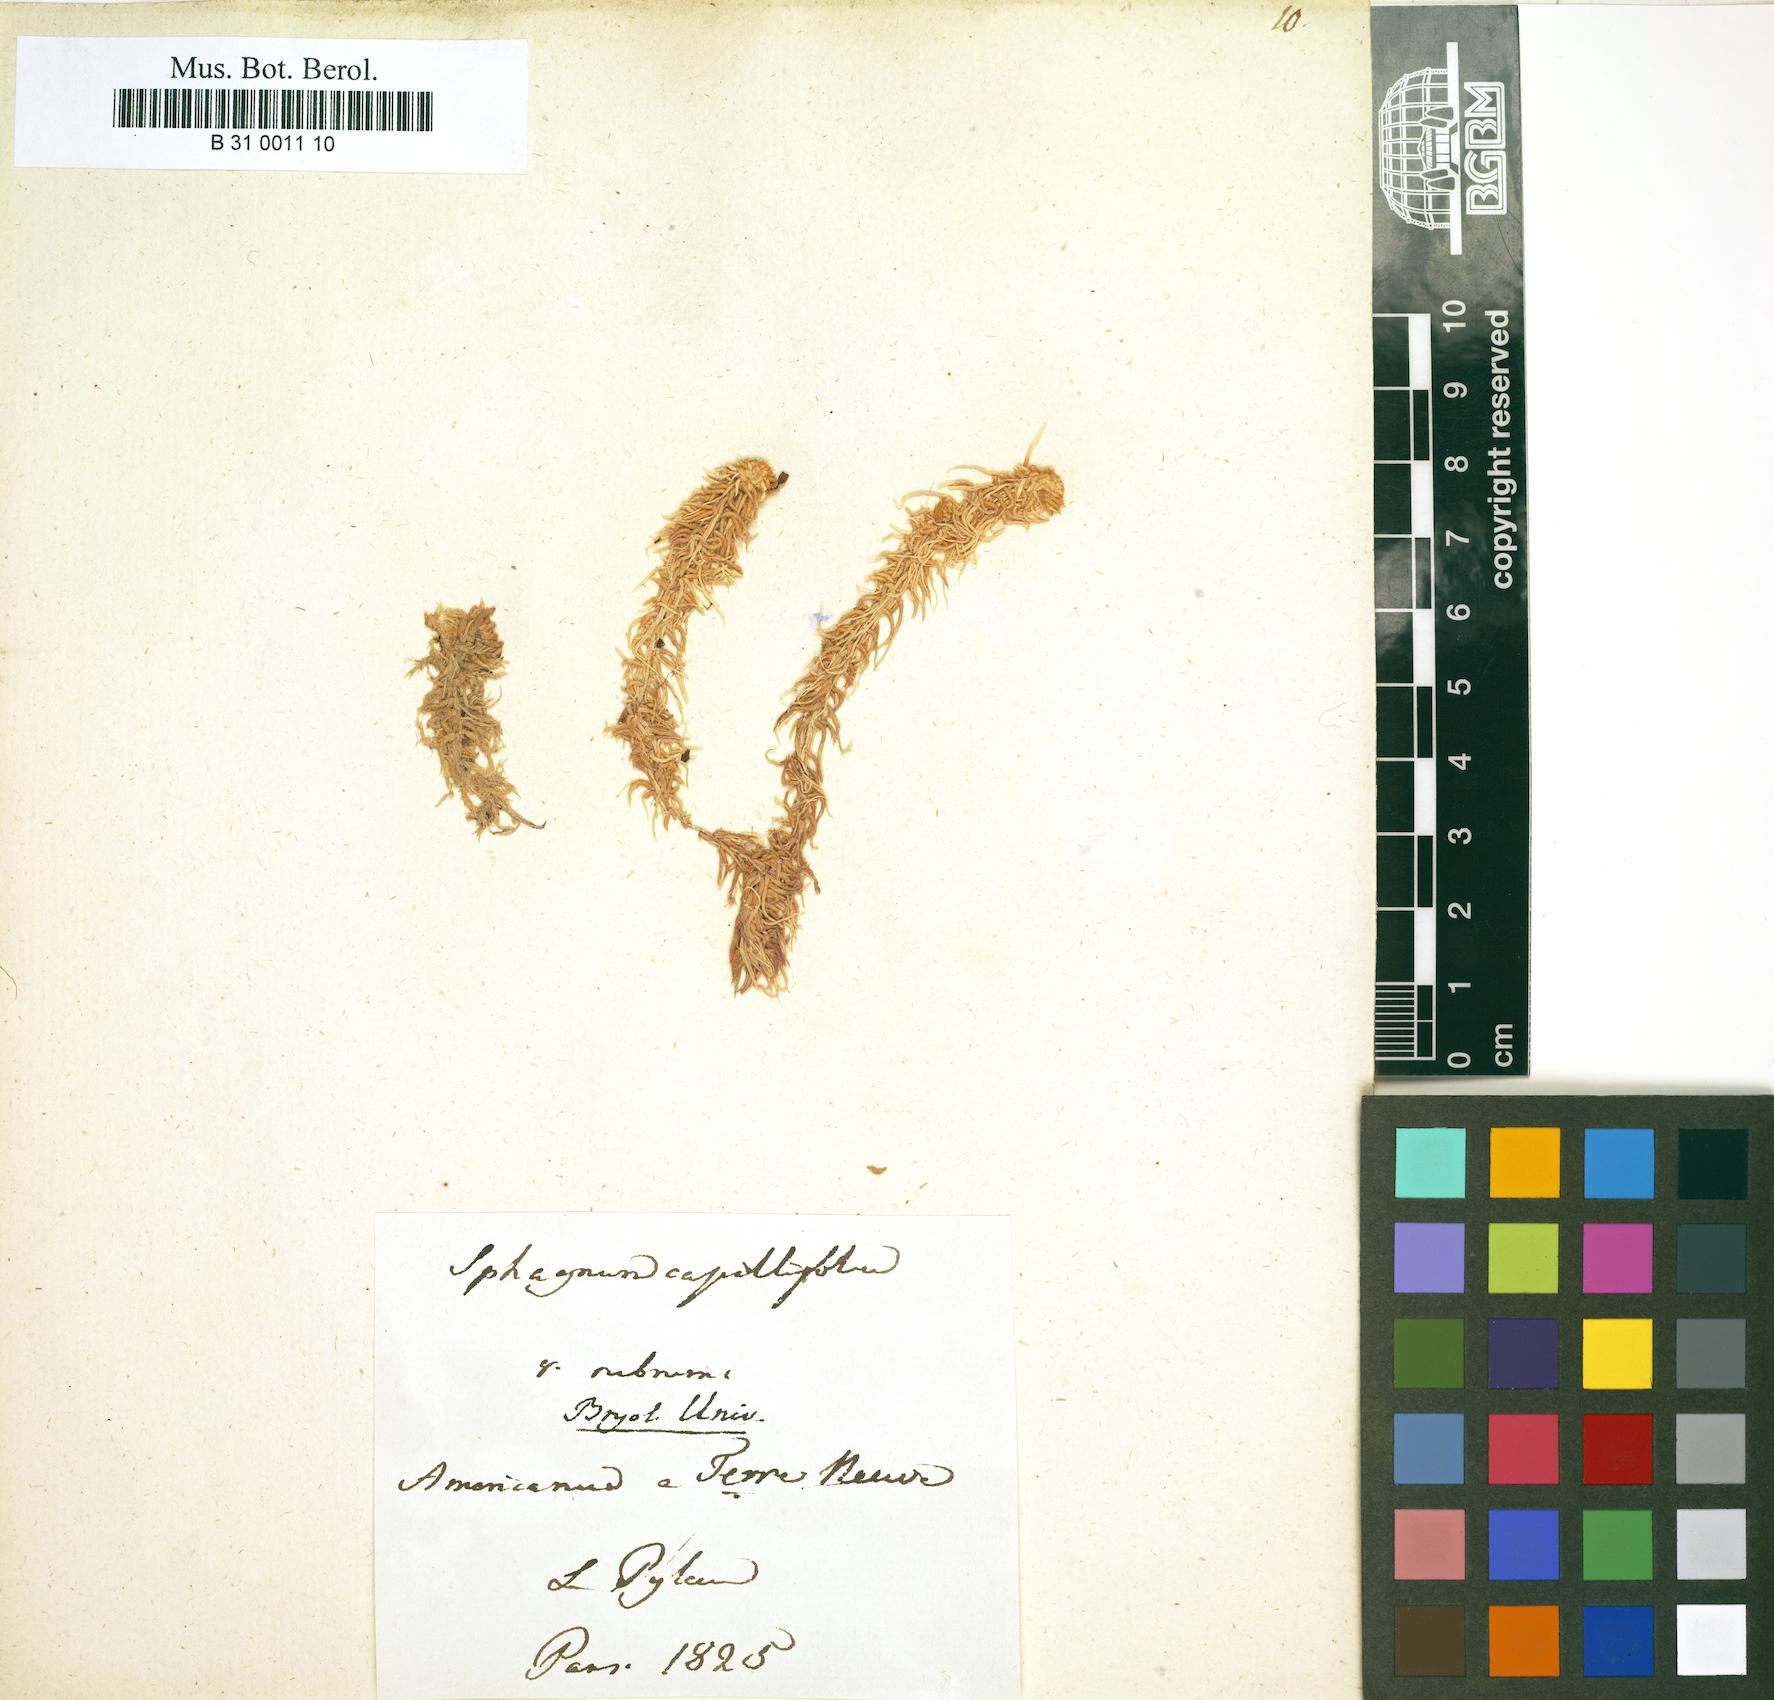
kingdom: Plantae
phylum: Bryophyta
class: Sphagnopsida
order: Sphagnales
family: Sphagnaceae
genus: Sphagnum
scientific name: Sphagnum rubellum
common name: Red peat moss
